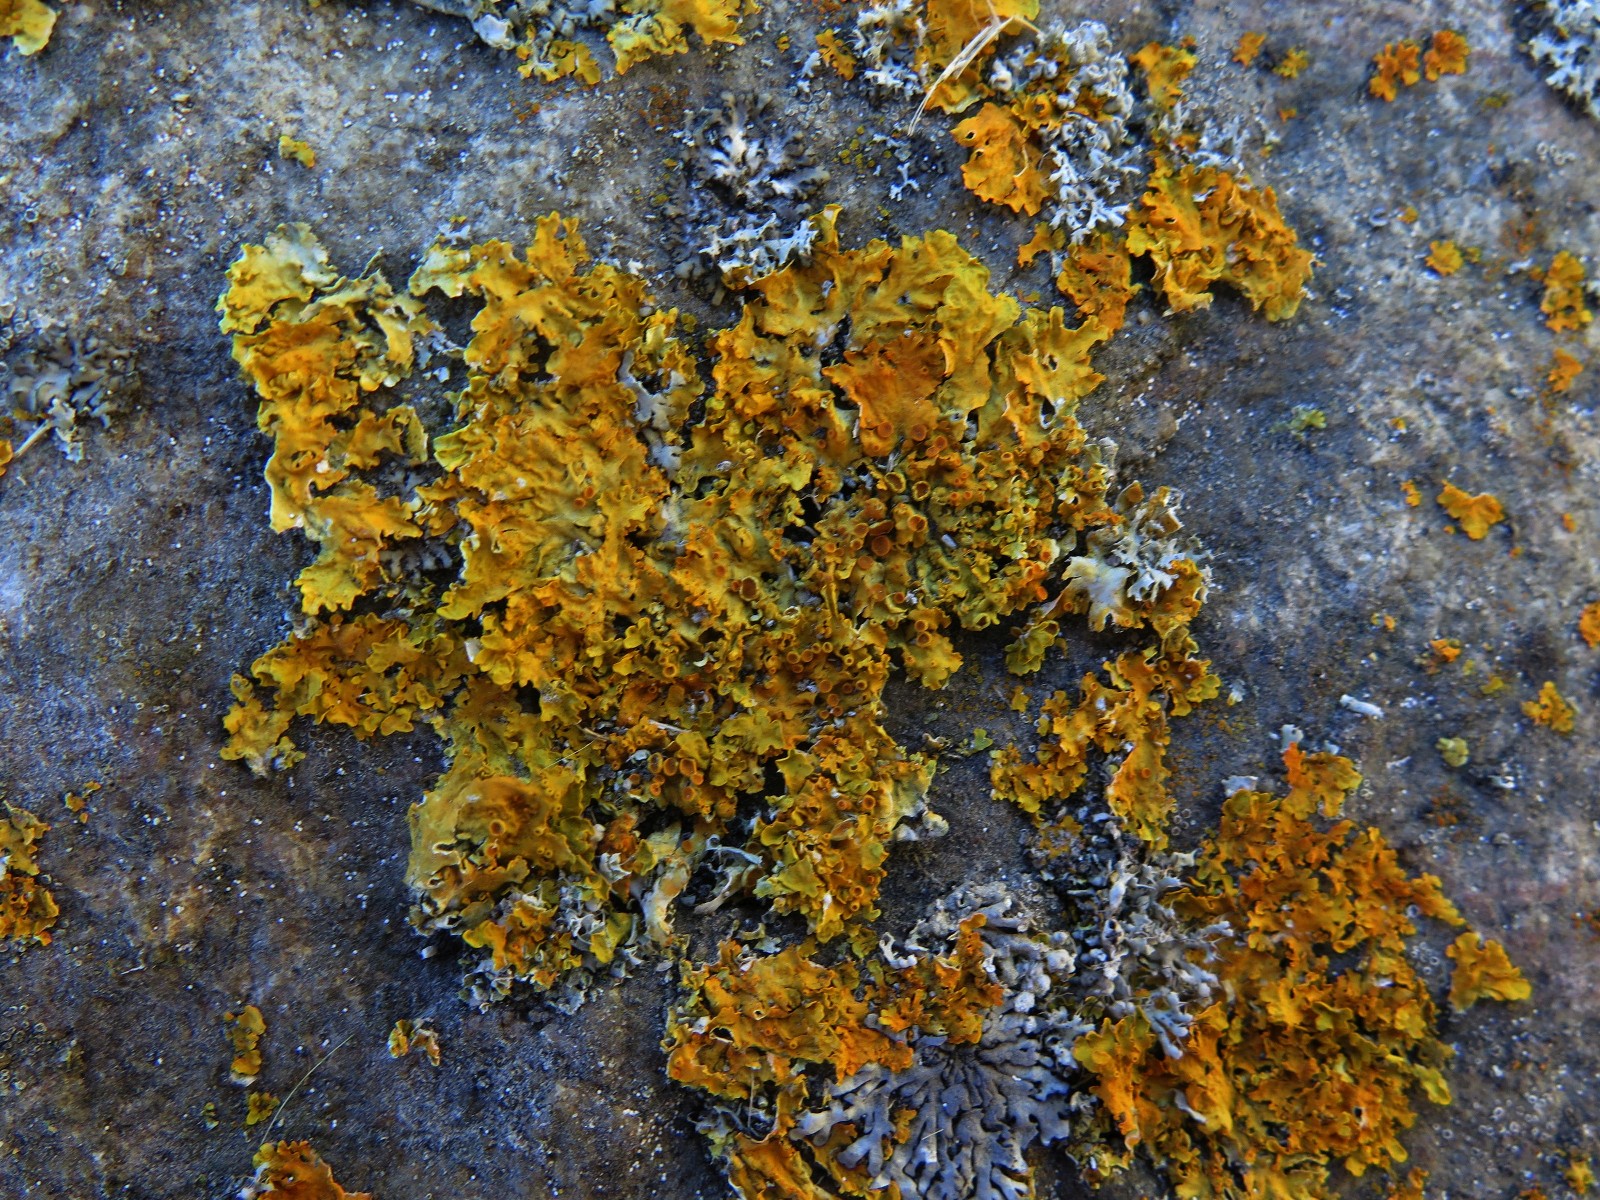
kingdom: Fungi
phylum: Ascomycota
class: Lecanoromycetes
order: Teloschistales
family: Teloschistaceae
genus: Xanthoria
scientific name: Xanthoria parietina
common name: almindelig væggelav
